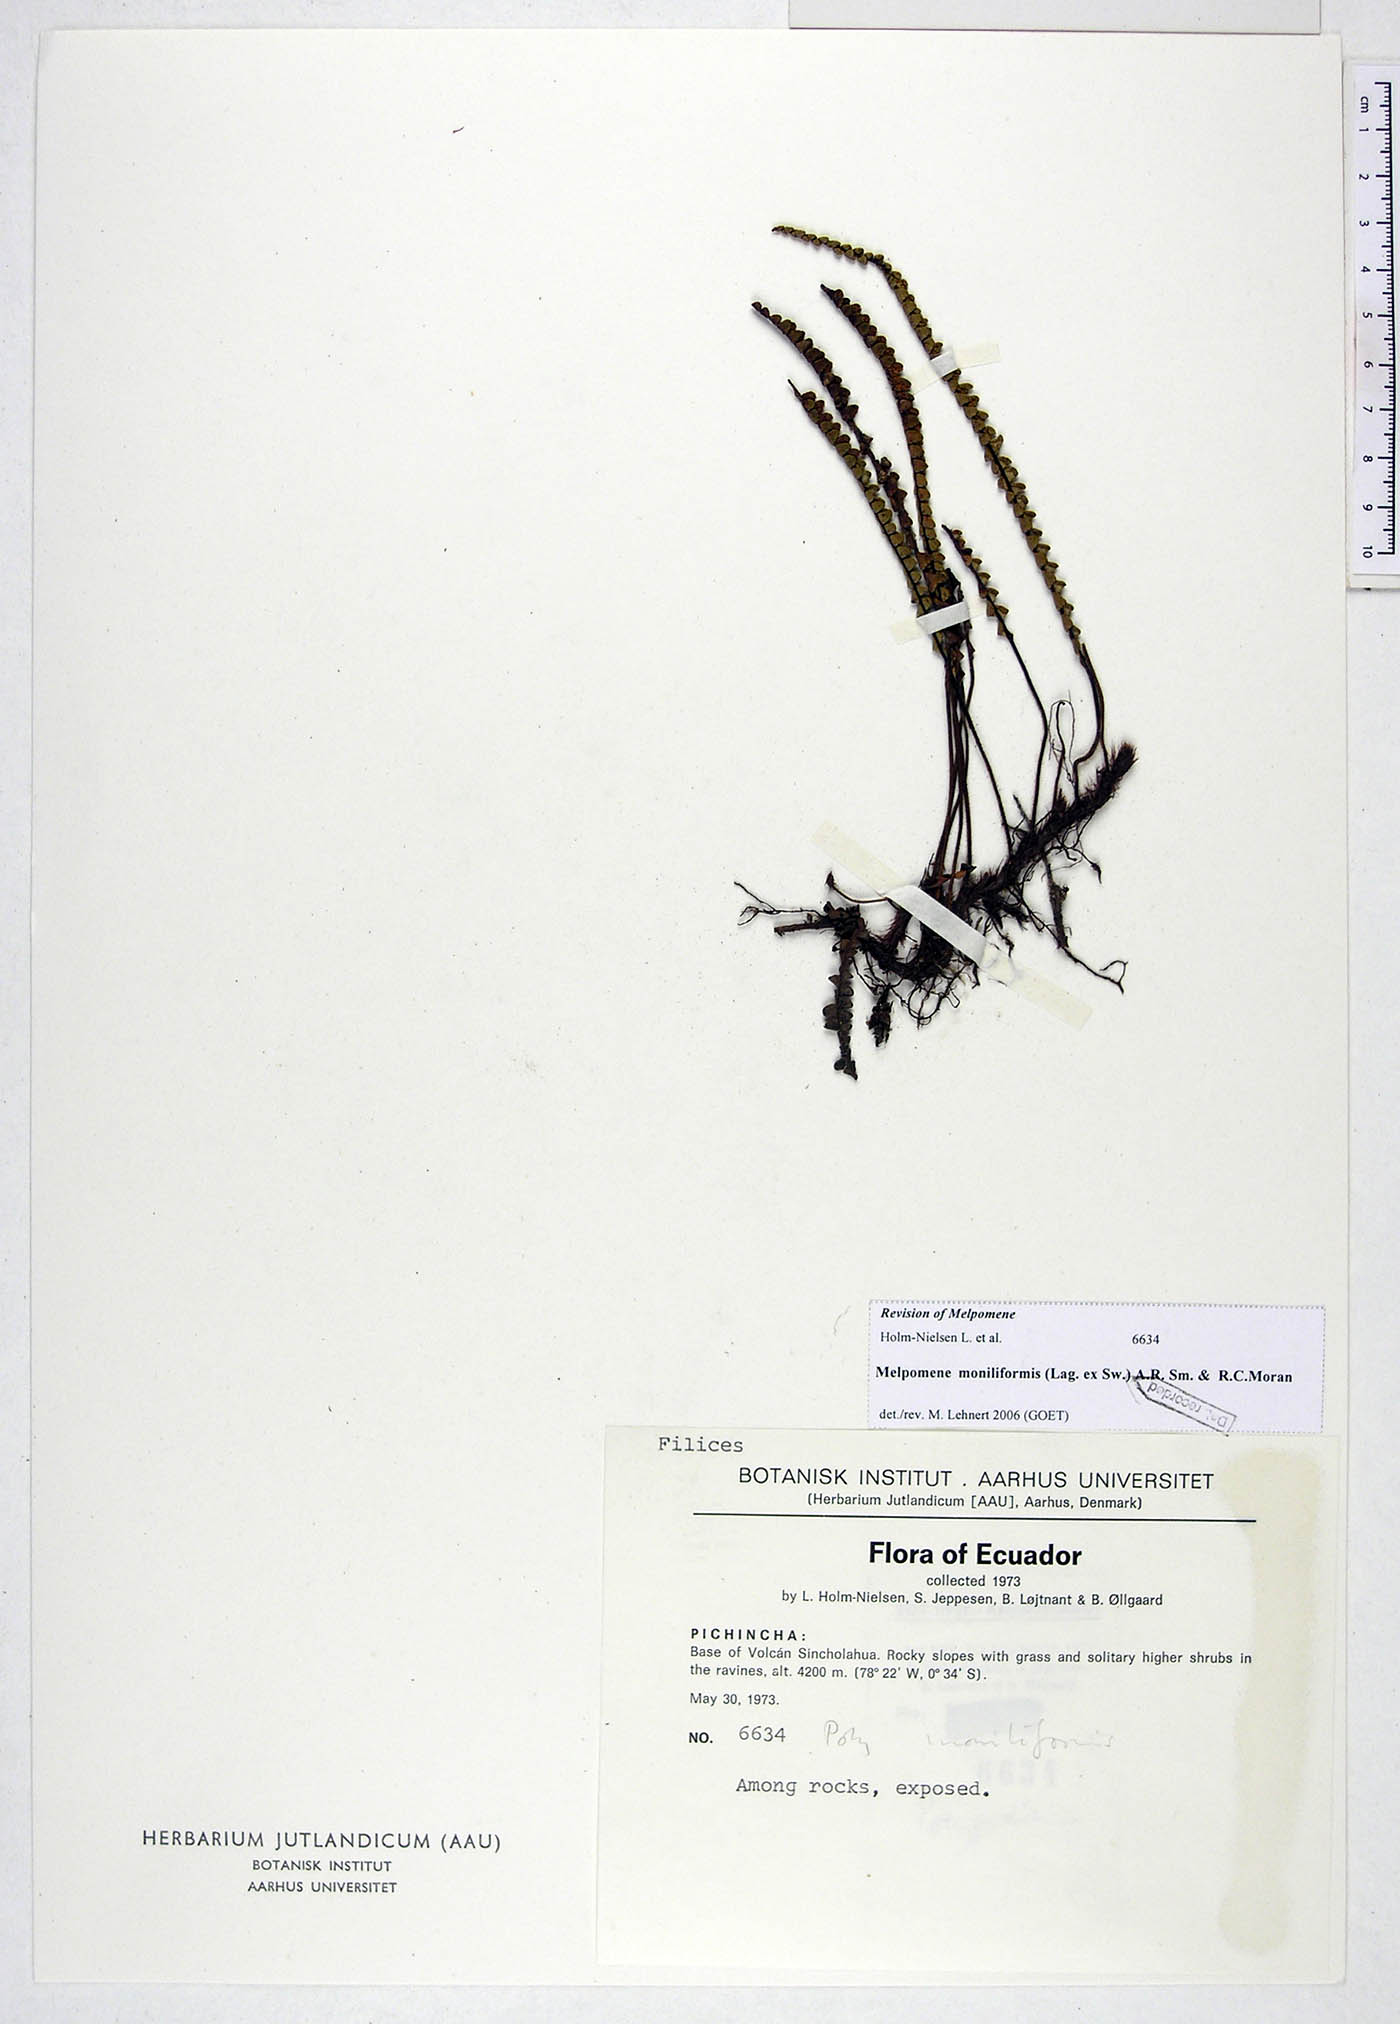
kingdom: Plantae
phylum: Tracheophyta
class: Polypodiopsida
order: Polypodiales
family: Polypodiaceae
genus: Melpomene
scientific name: Melpomene moniliformis
